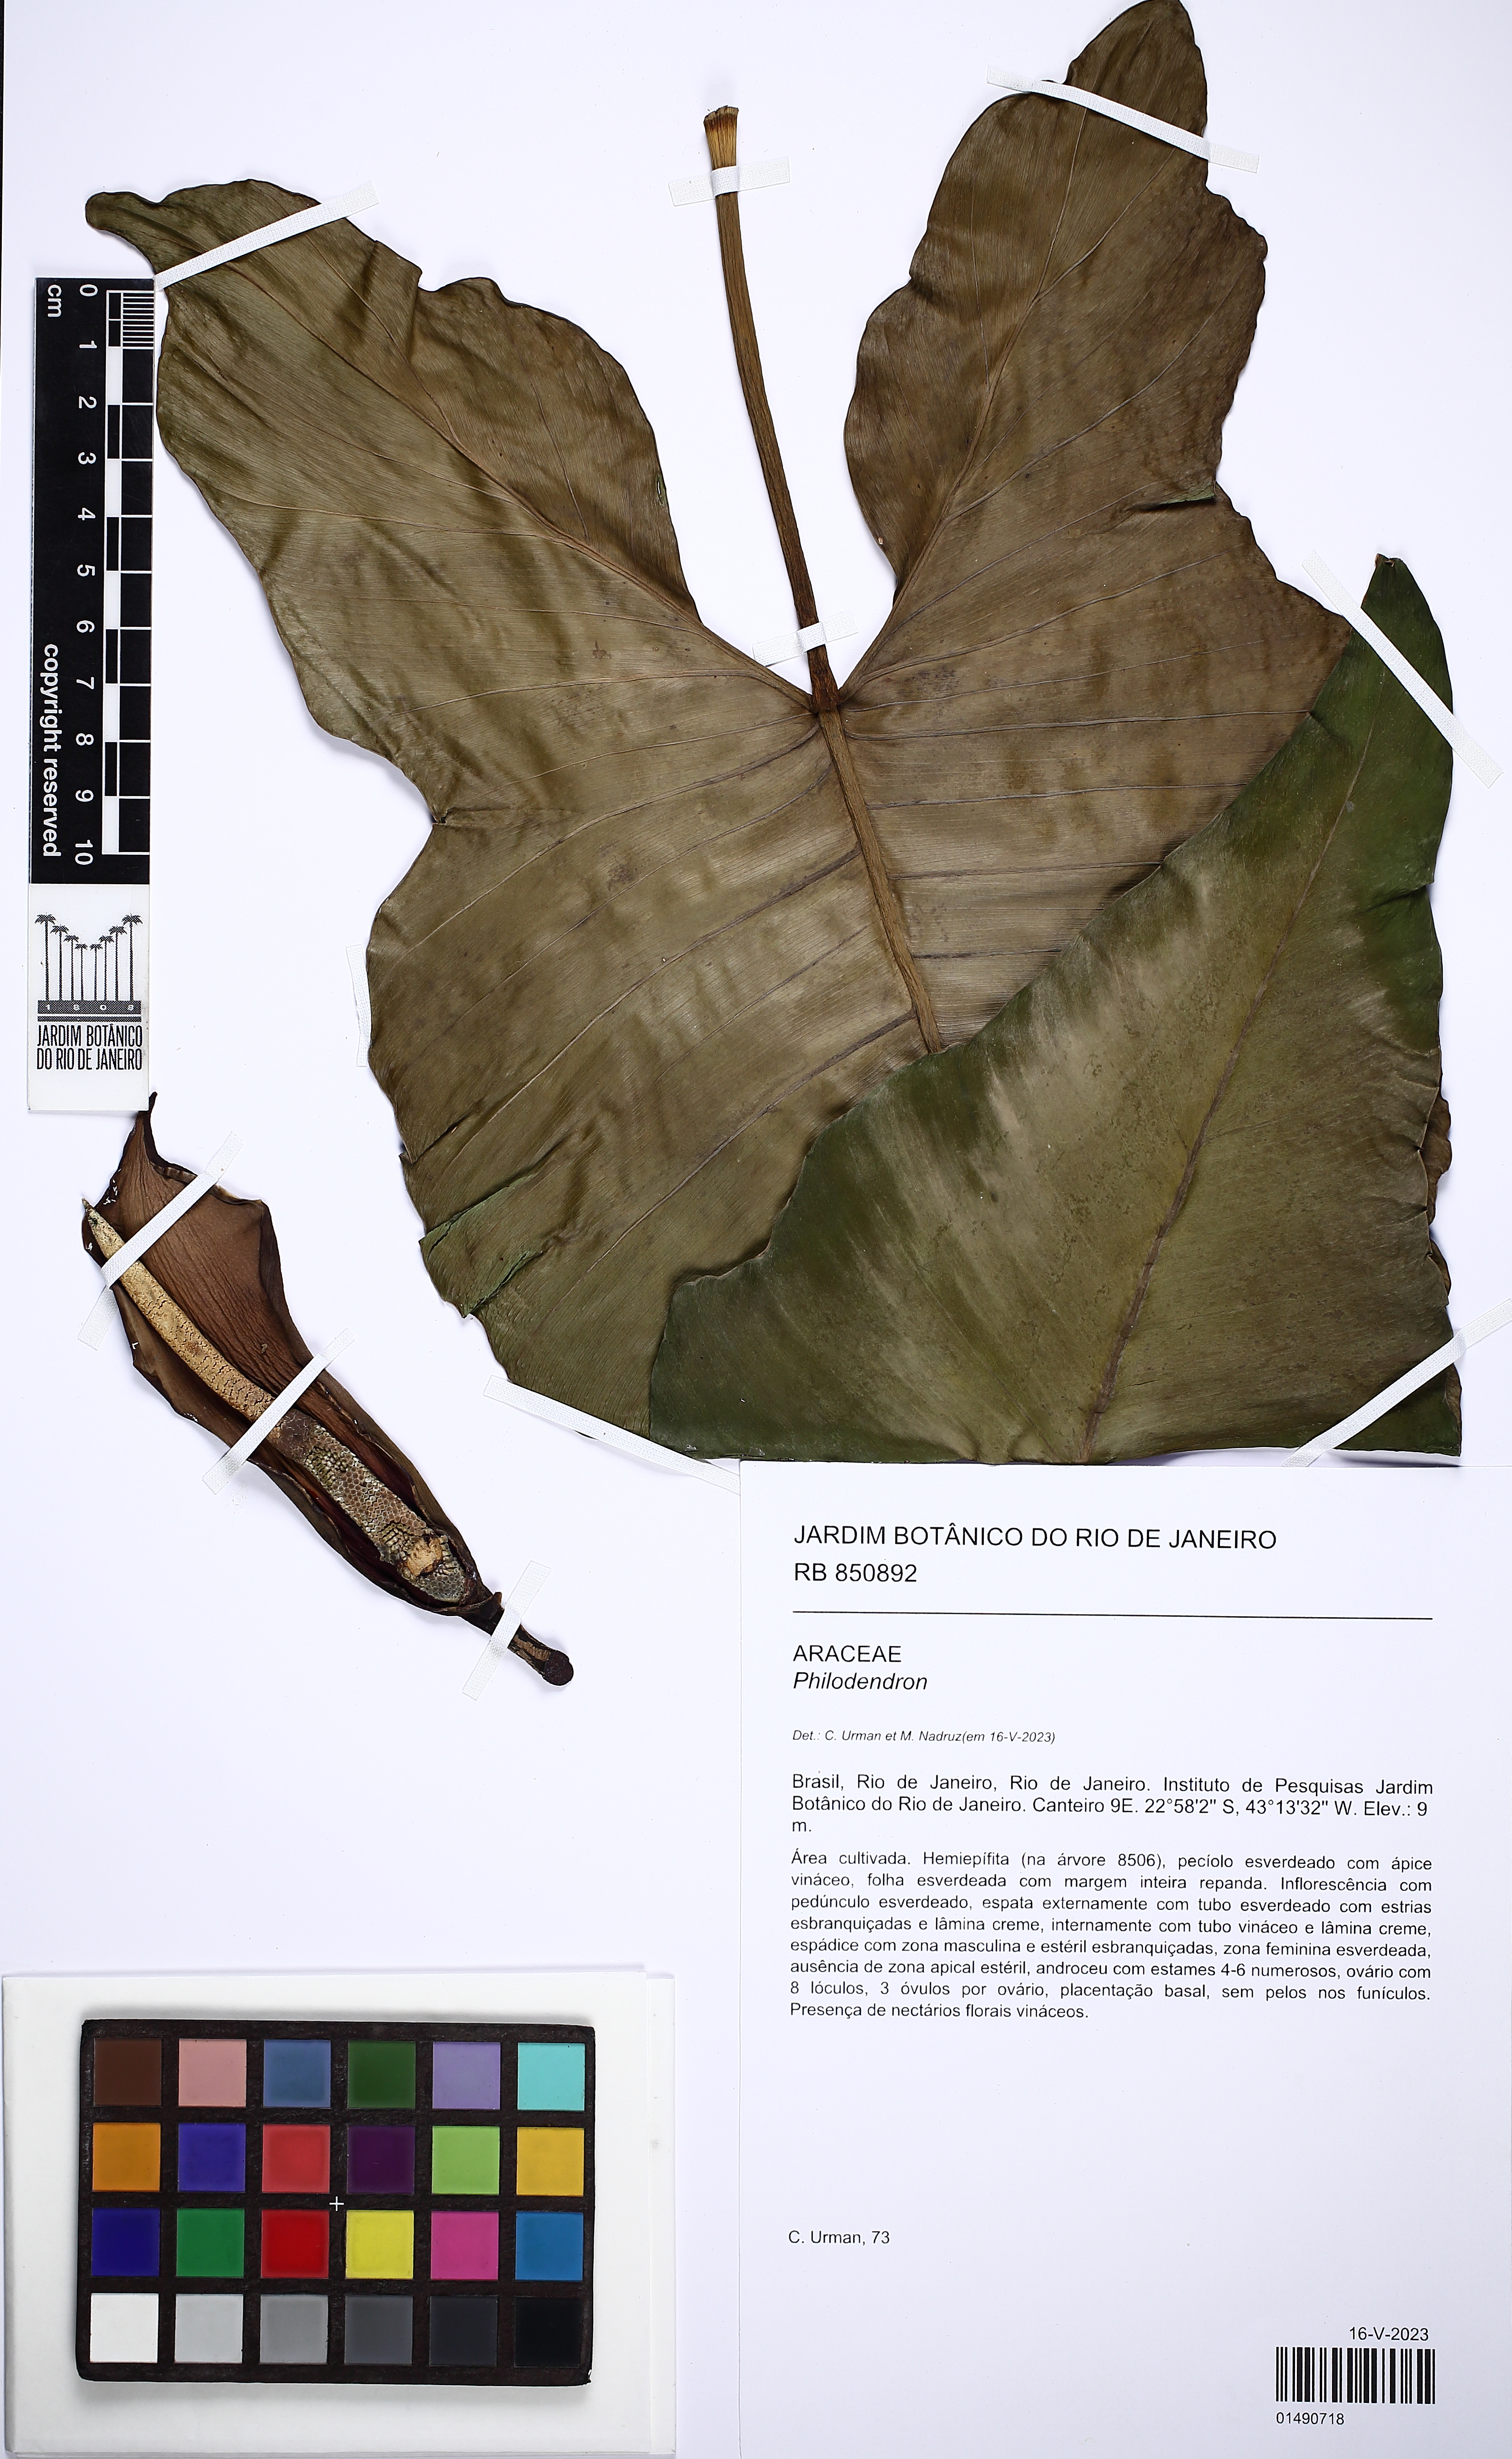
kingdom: Plantae
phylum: Tracheophyta
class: Liliopsida
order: Alismatales
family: Araceae
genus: Philodendron
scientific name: Philodendron
